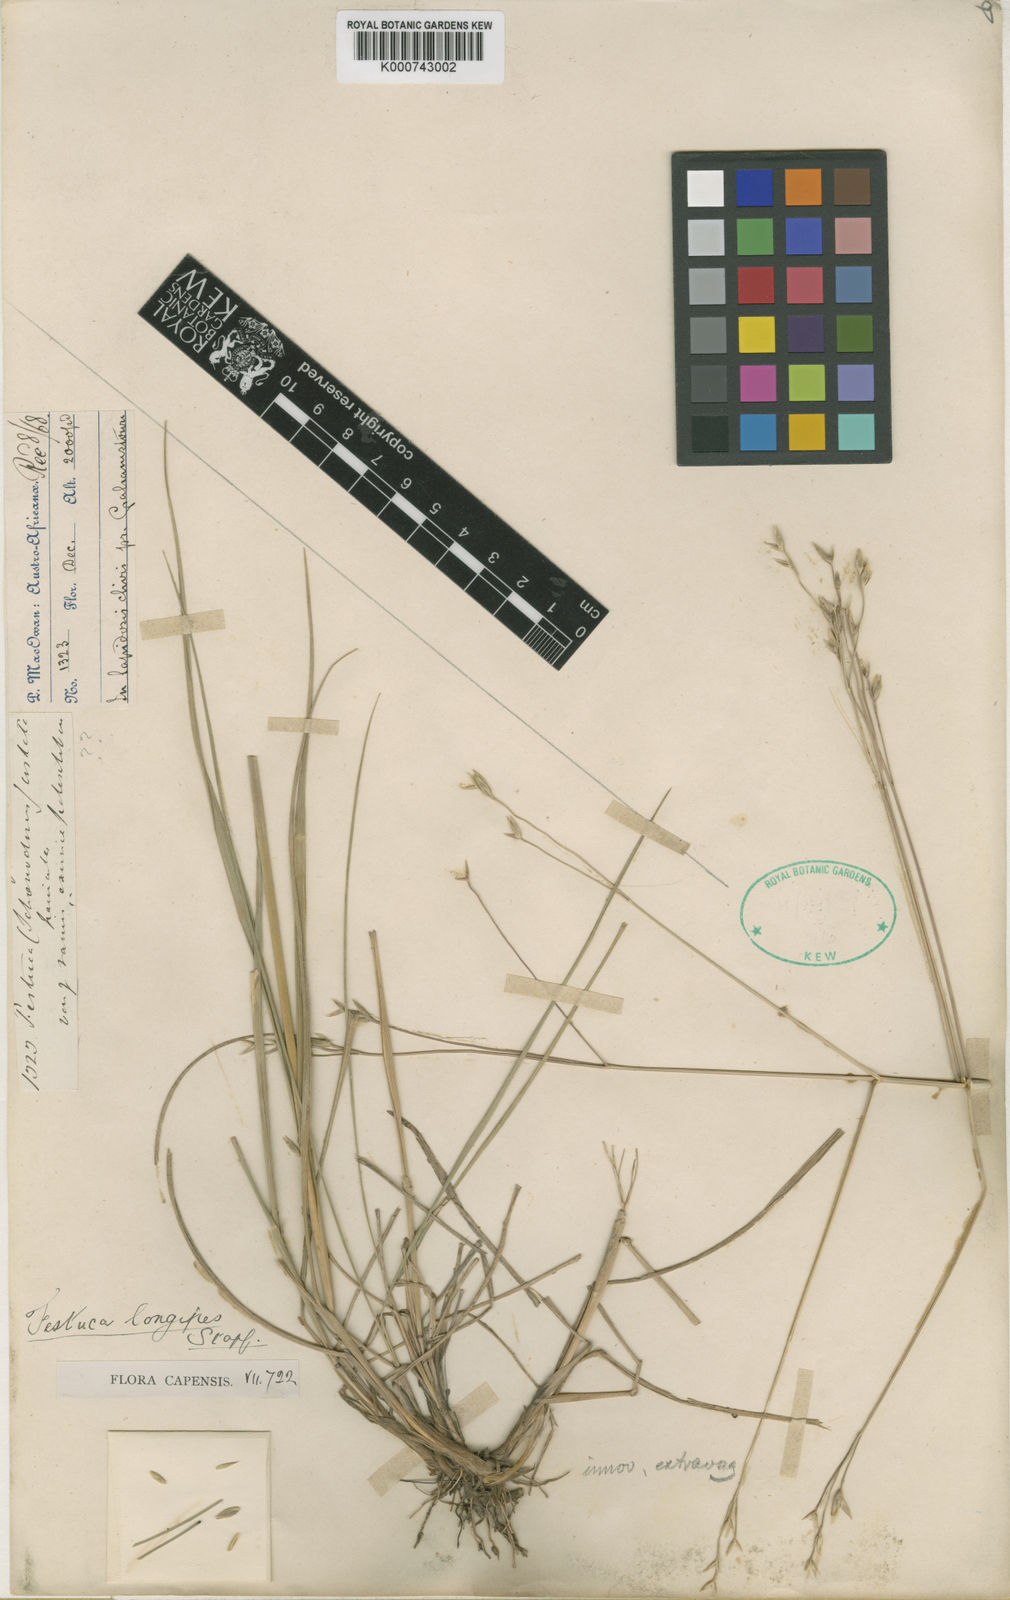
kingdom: Plantae
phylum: Tracheophyta
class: Liliopsida
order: Poales
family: Poaceae
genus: Festuca
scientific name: Festuca longipes
